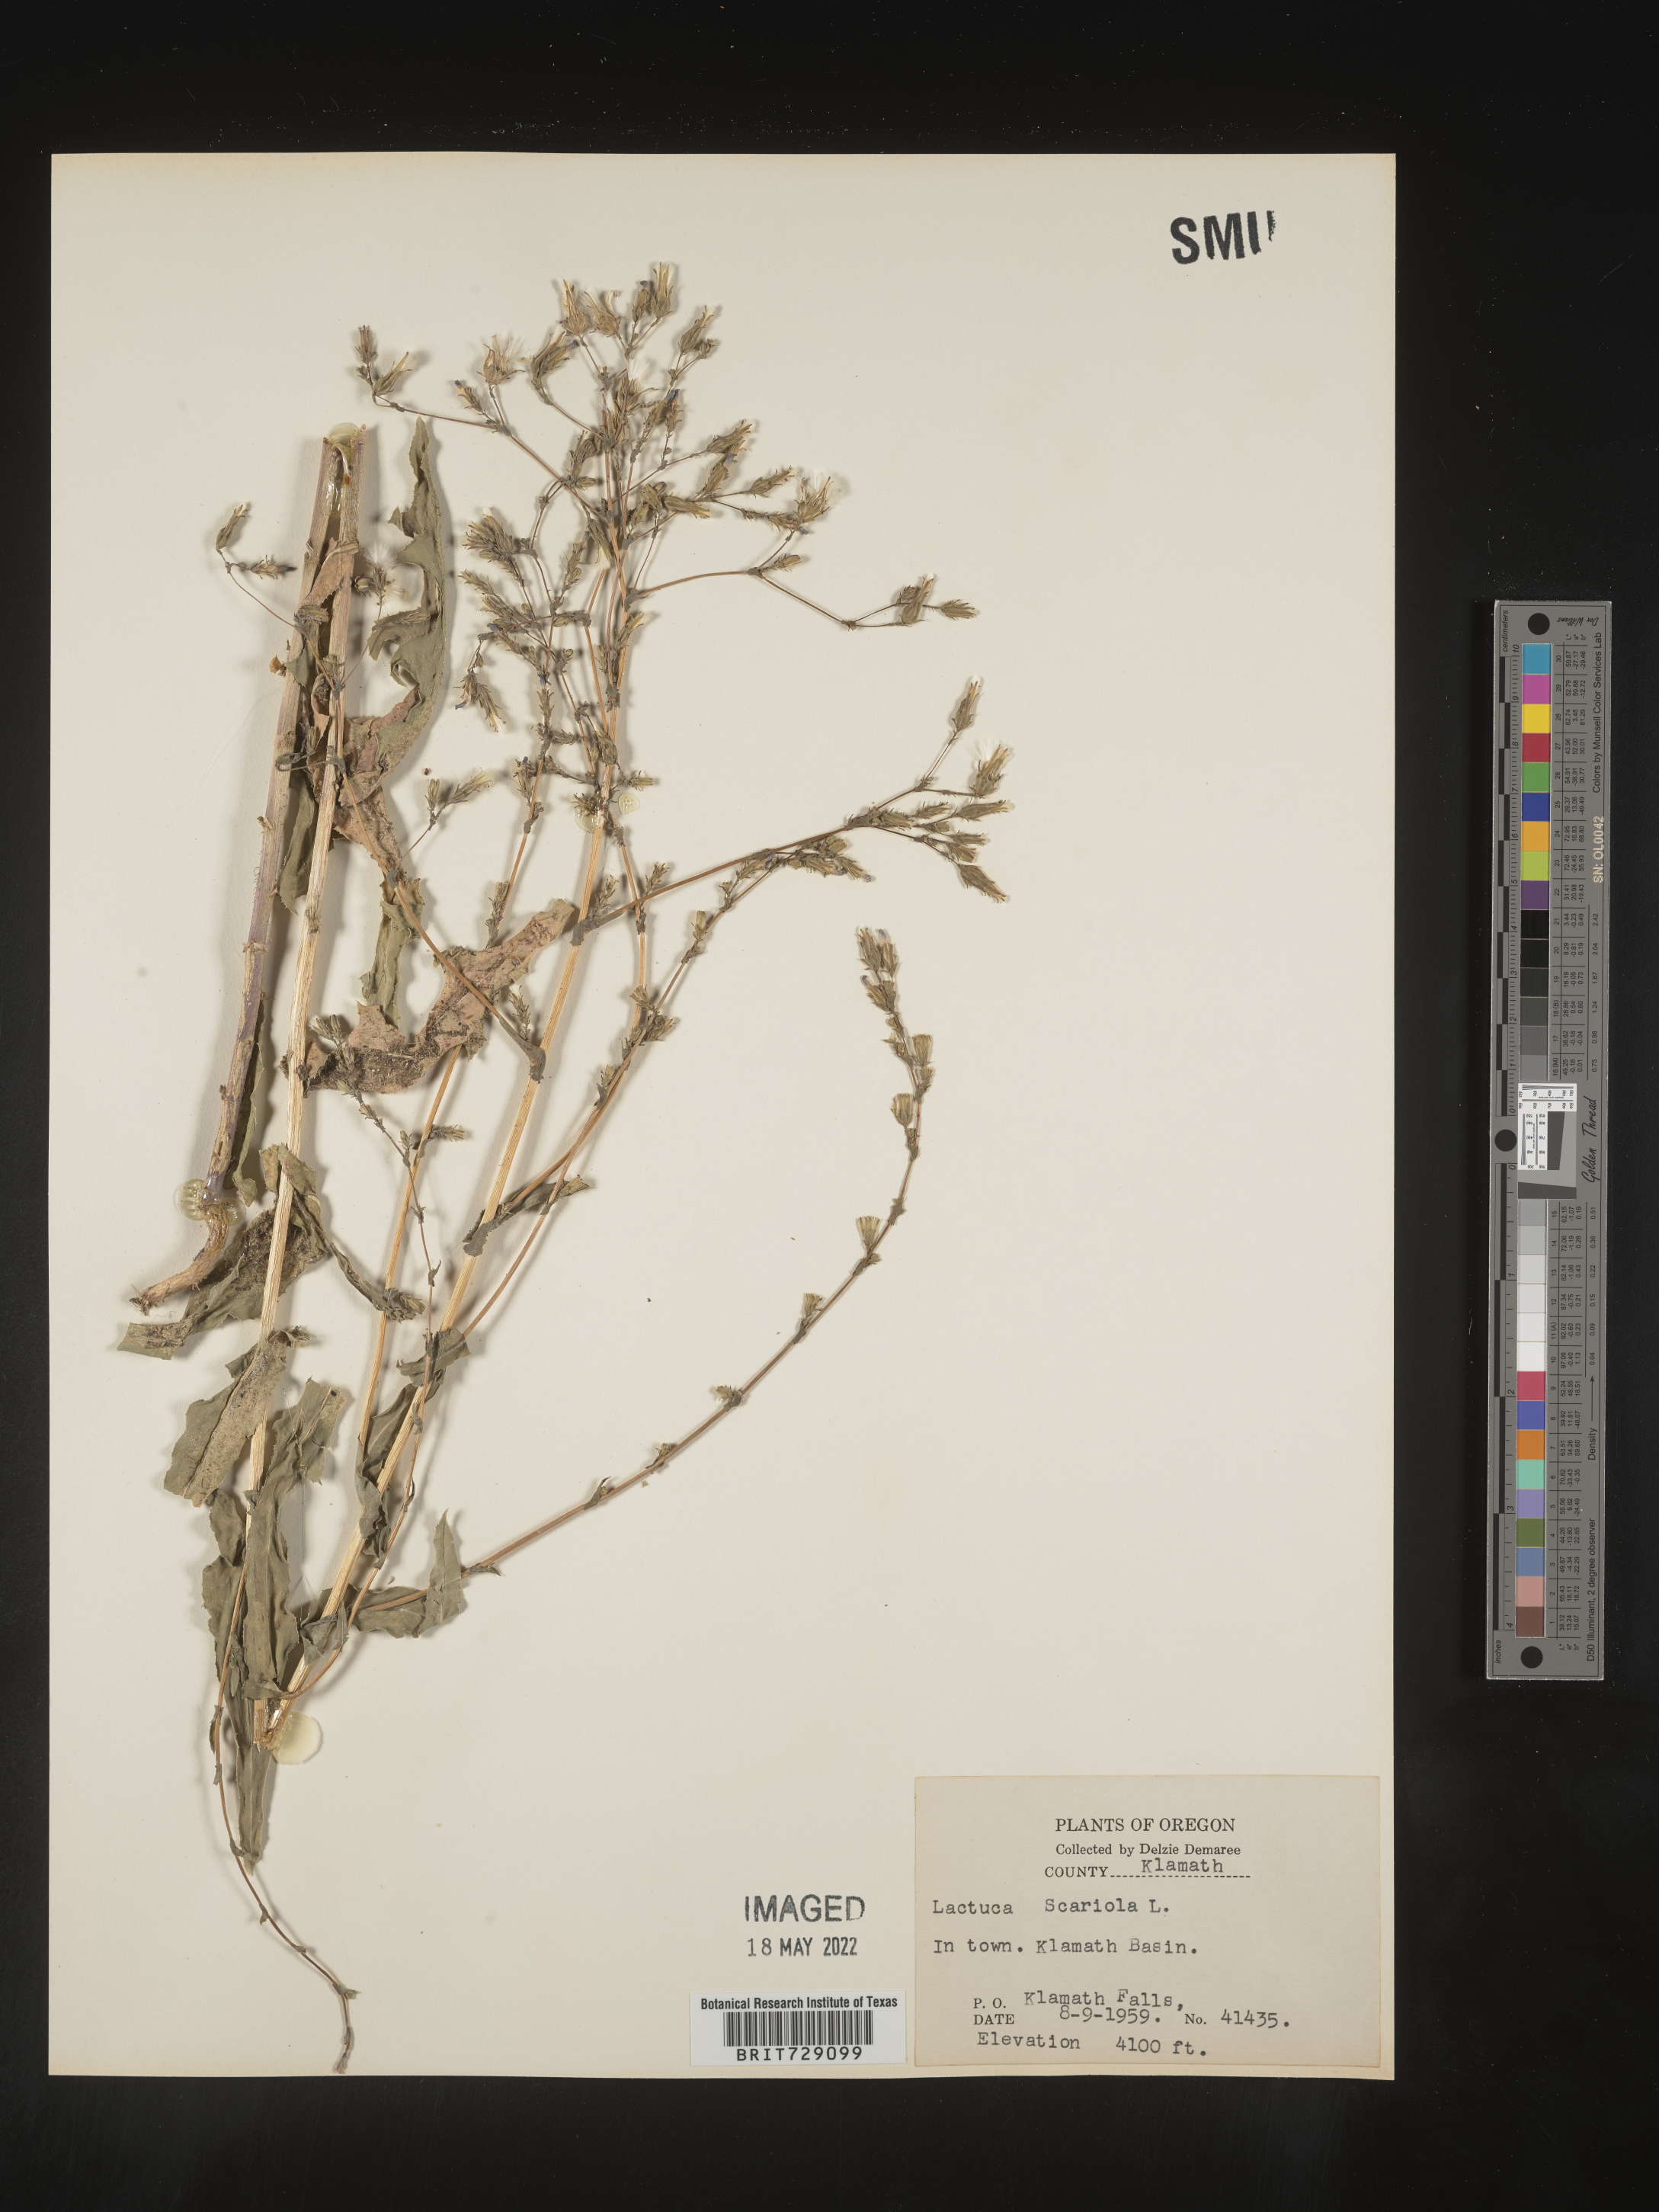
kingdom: Plantae
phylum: Tracheophyta
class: Magnoliopsida
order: Asterales
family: Asteraceae
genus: Lactuca
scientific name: Lactuca serriola
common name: Prickly lettuce
